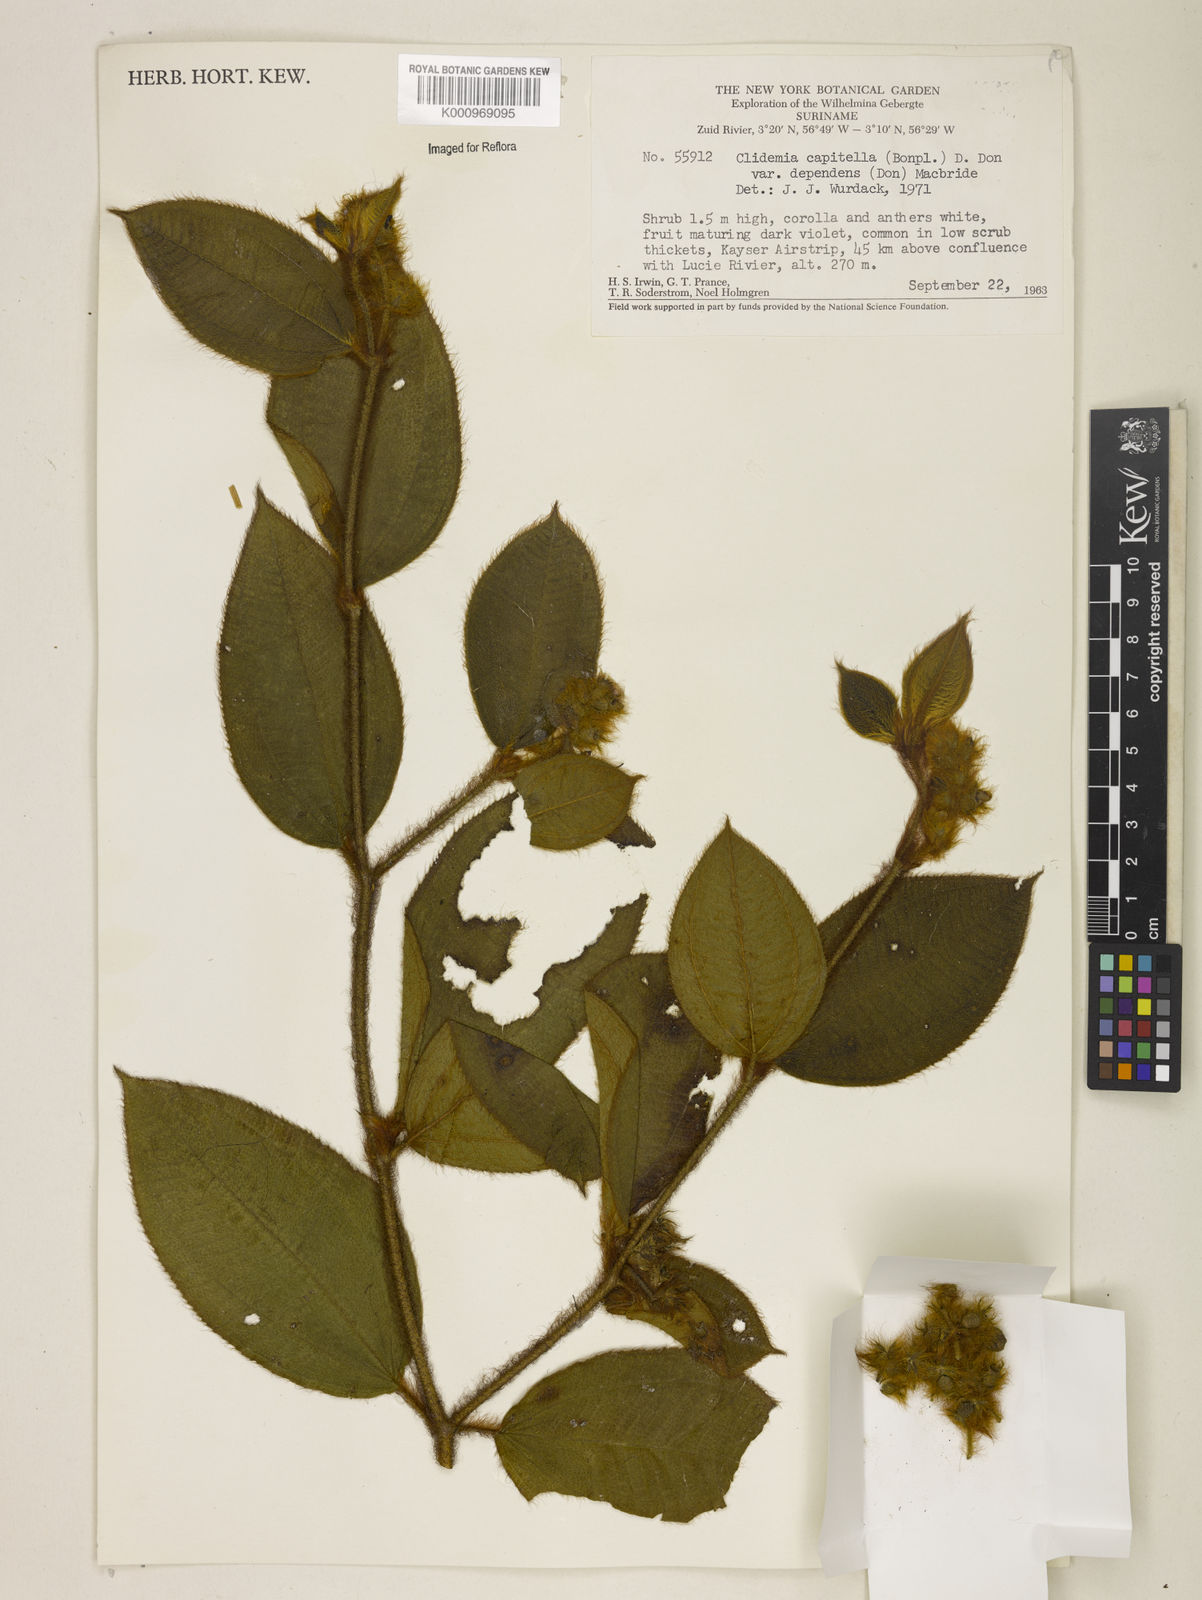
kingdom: Plantae
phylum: Tracheophyta
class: Magnoliopsida
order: Myrtales
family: Melastomataceae
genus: Miconia
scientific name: Miconia dependens
